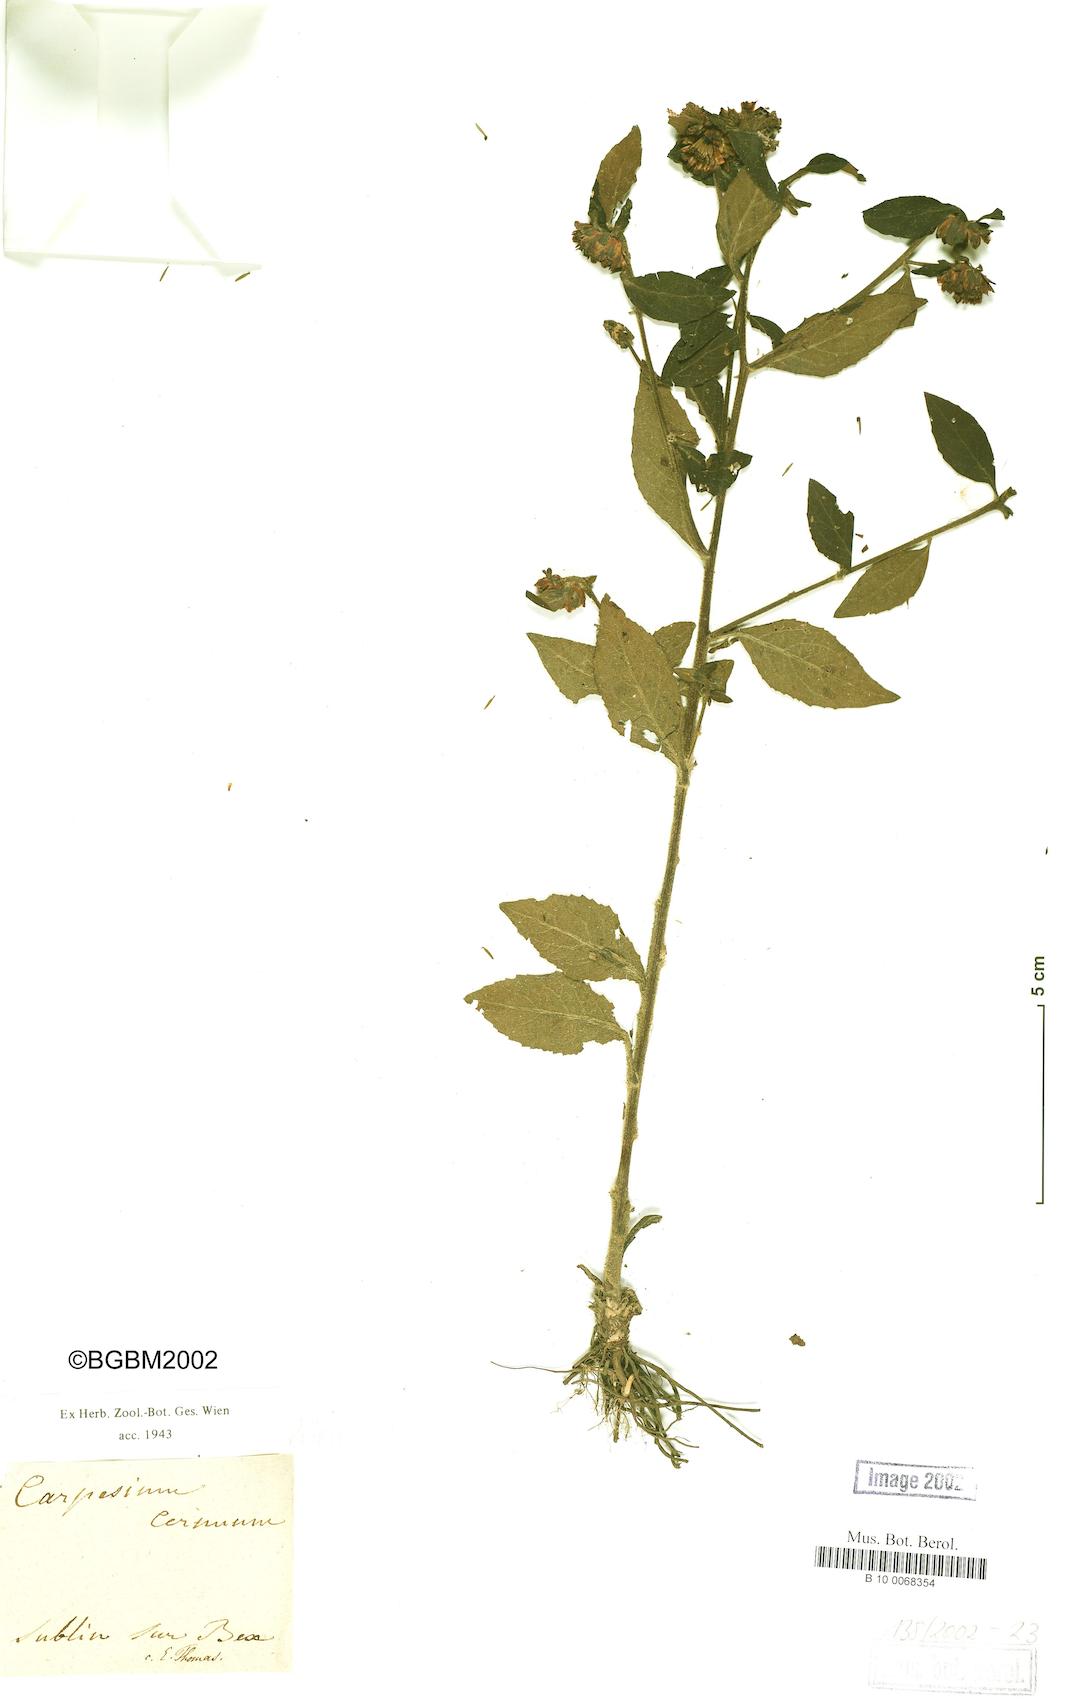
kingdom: Plantae
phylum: Tracheophyta
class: Magnoliopsida
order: Asterales
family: Asteraceae
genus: Carpesium
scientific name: Carpesium cernuum
